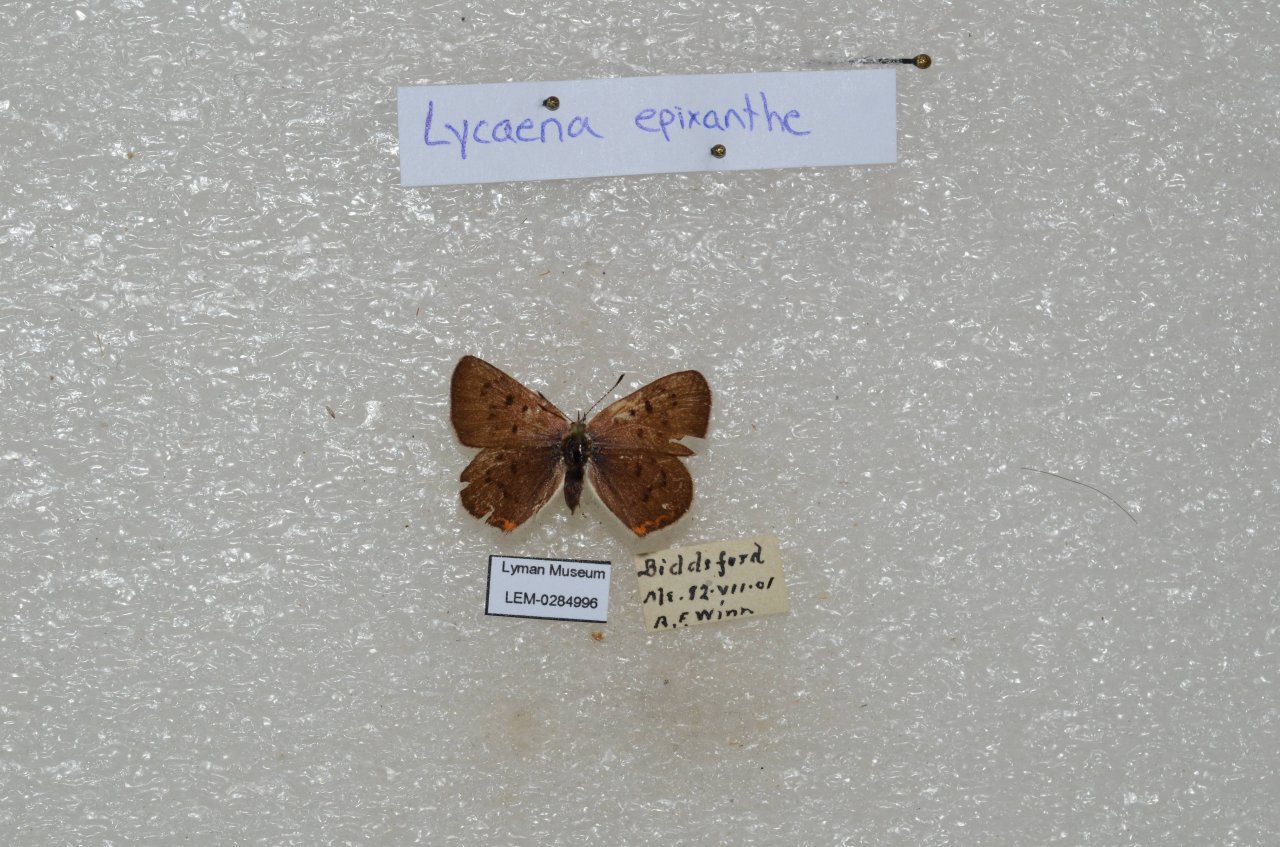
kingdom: Animalia
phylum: Arthropoda
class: Insecta
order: Lepidoptera
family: Sesiidae
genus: Sesia
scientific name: Sesia Lycaena epixanthe
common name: Bog Copper
